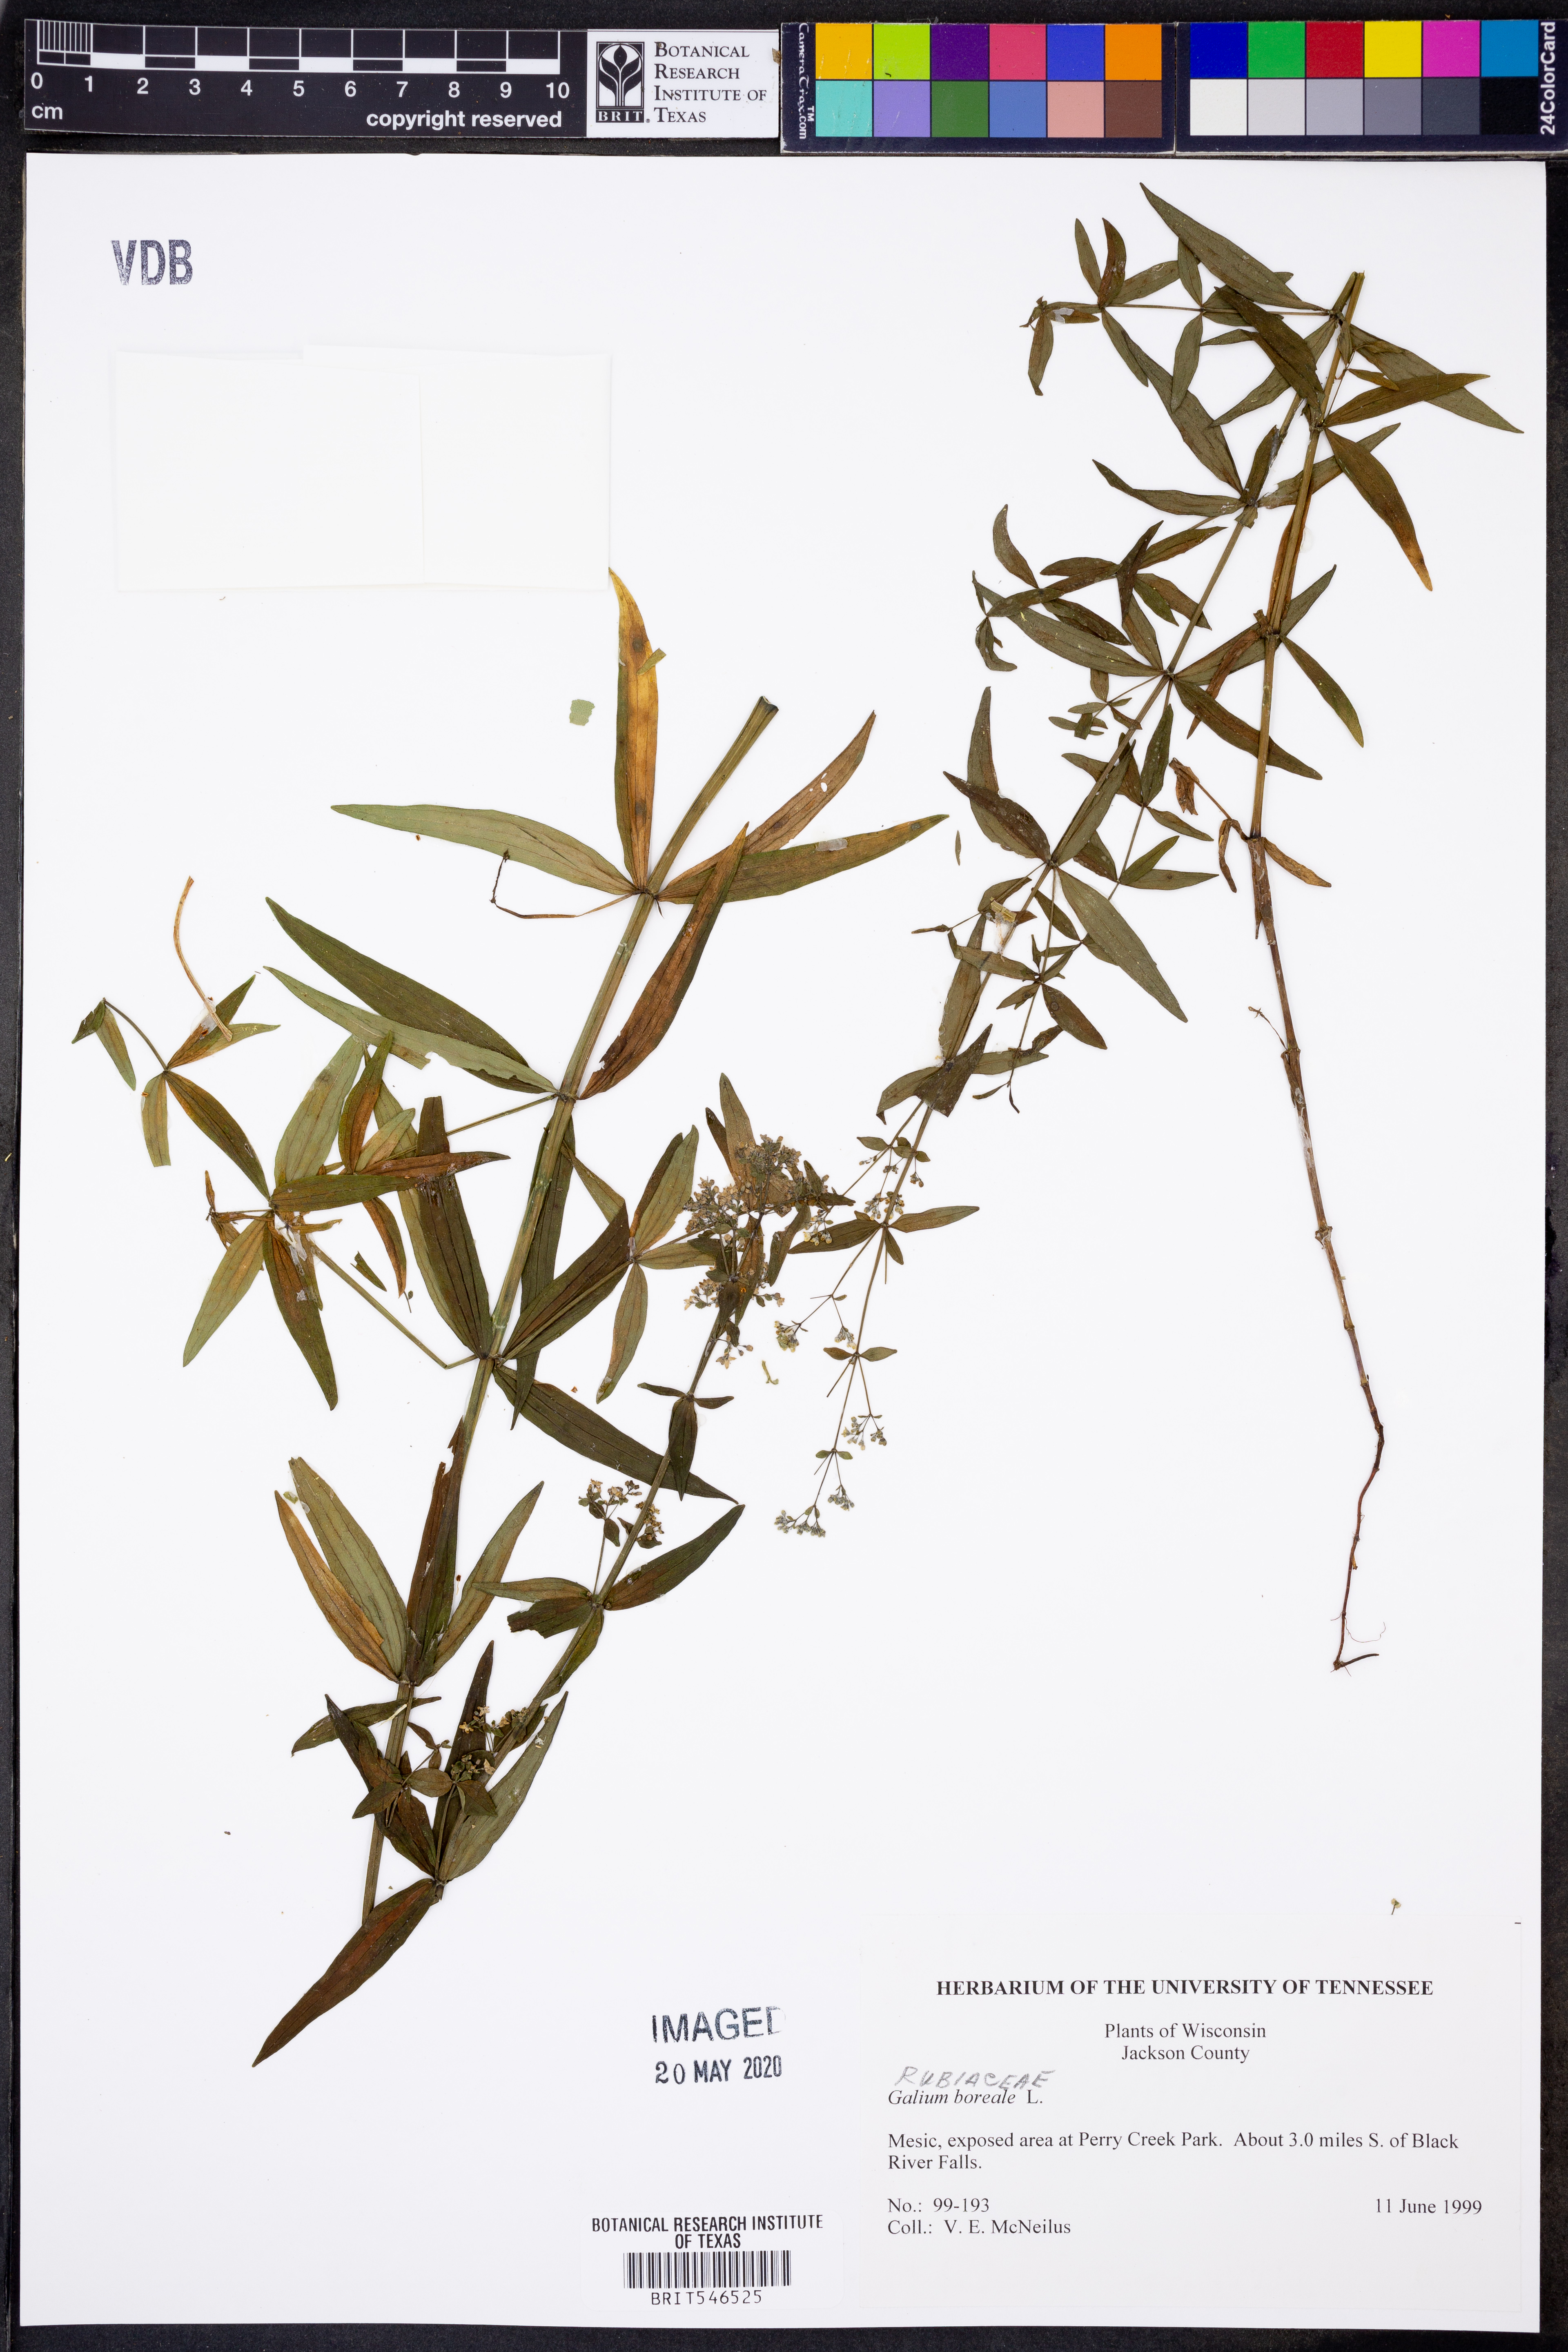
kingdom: Plantae
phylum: Tracheophyta
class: Magnoliopsida
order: Gentianales
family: Rubiaceae
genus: Galium
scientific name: Galium boreale
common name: Northern bedstraw
